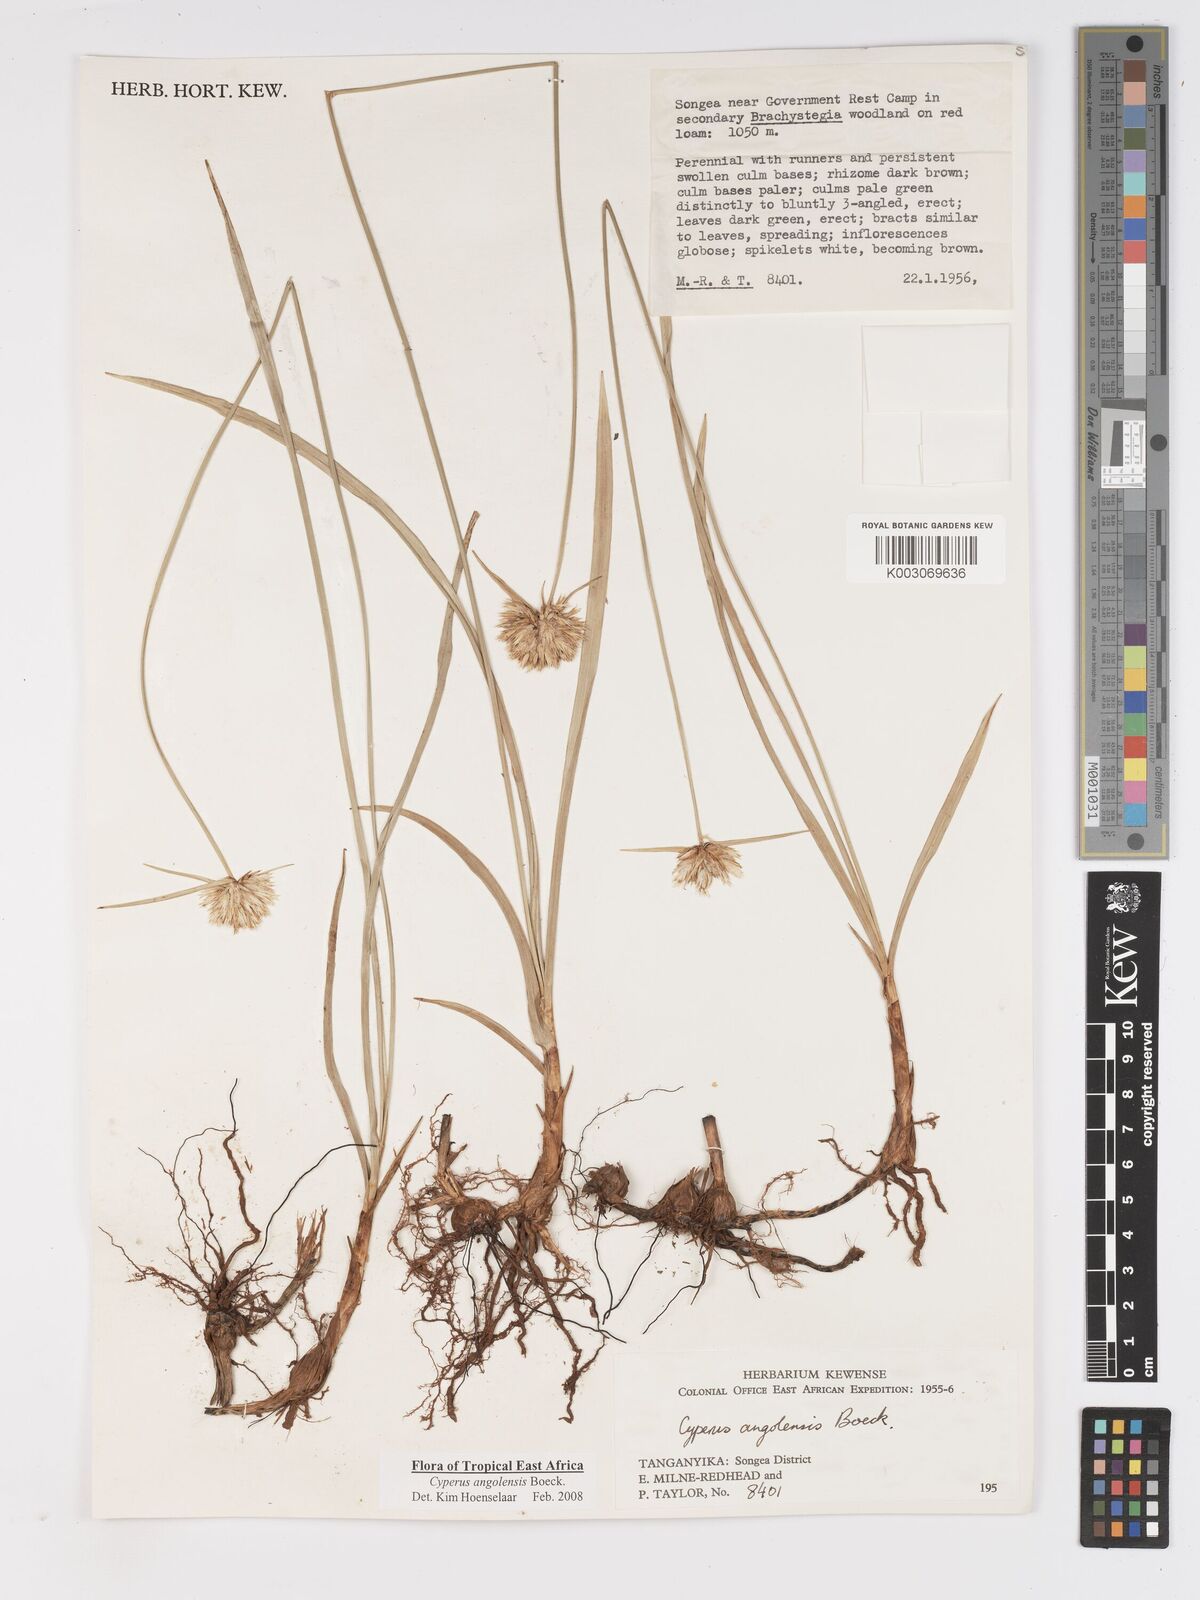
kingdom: Plantae
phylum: Tracheophyta
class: Liliopsida
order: Poales
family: Cyperaceae
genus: Cyperus
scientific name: Cyperus angolensis
